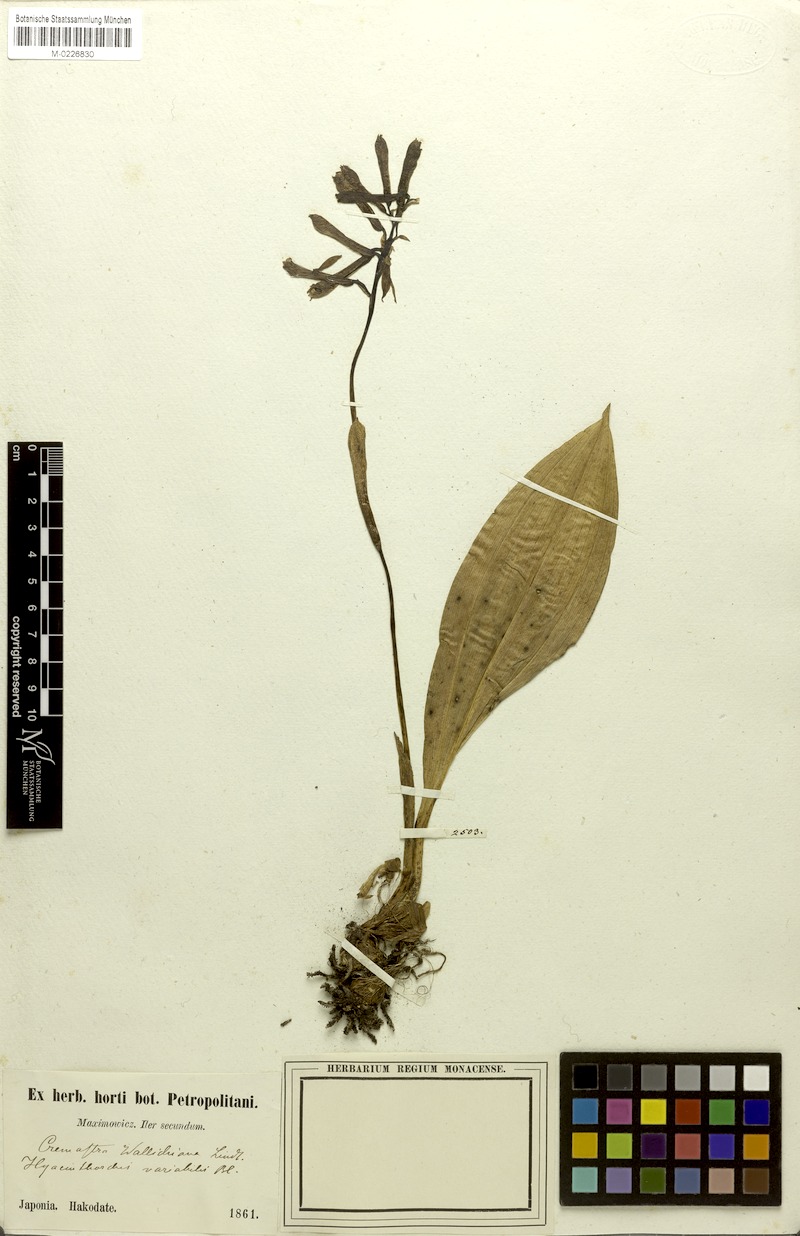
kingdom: Plantae
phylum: Tracheophyta
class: Liliopsida
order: Asparagales
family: Orchidaceae
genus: Cremastra
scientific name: Cremastra appendiculata
